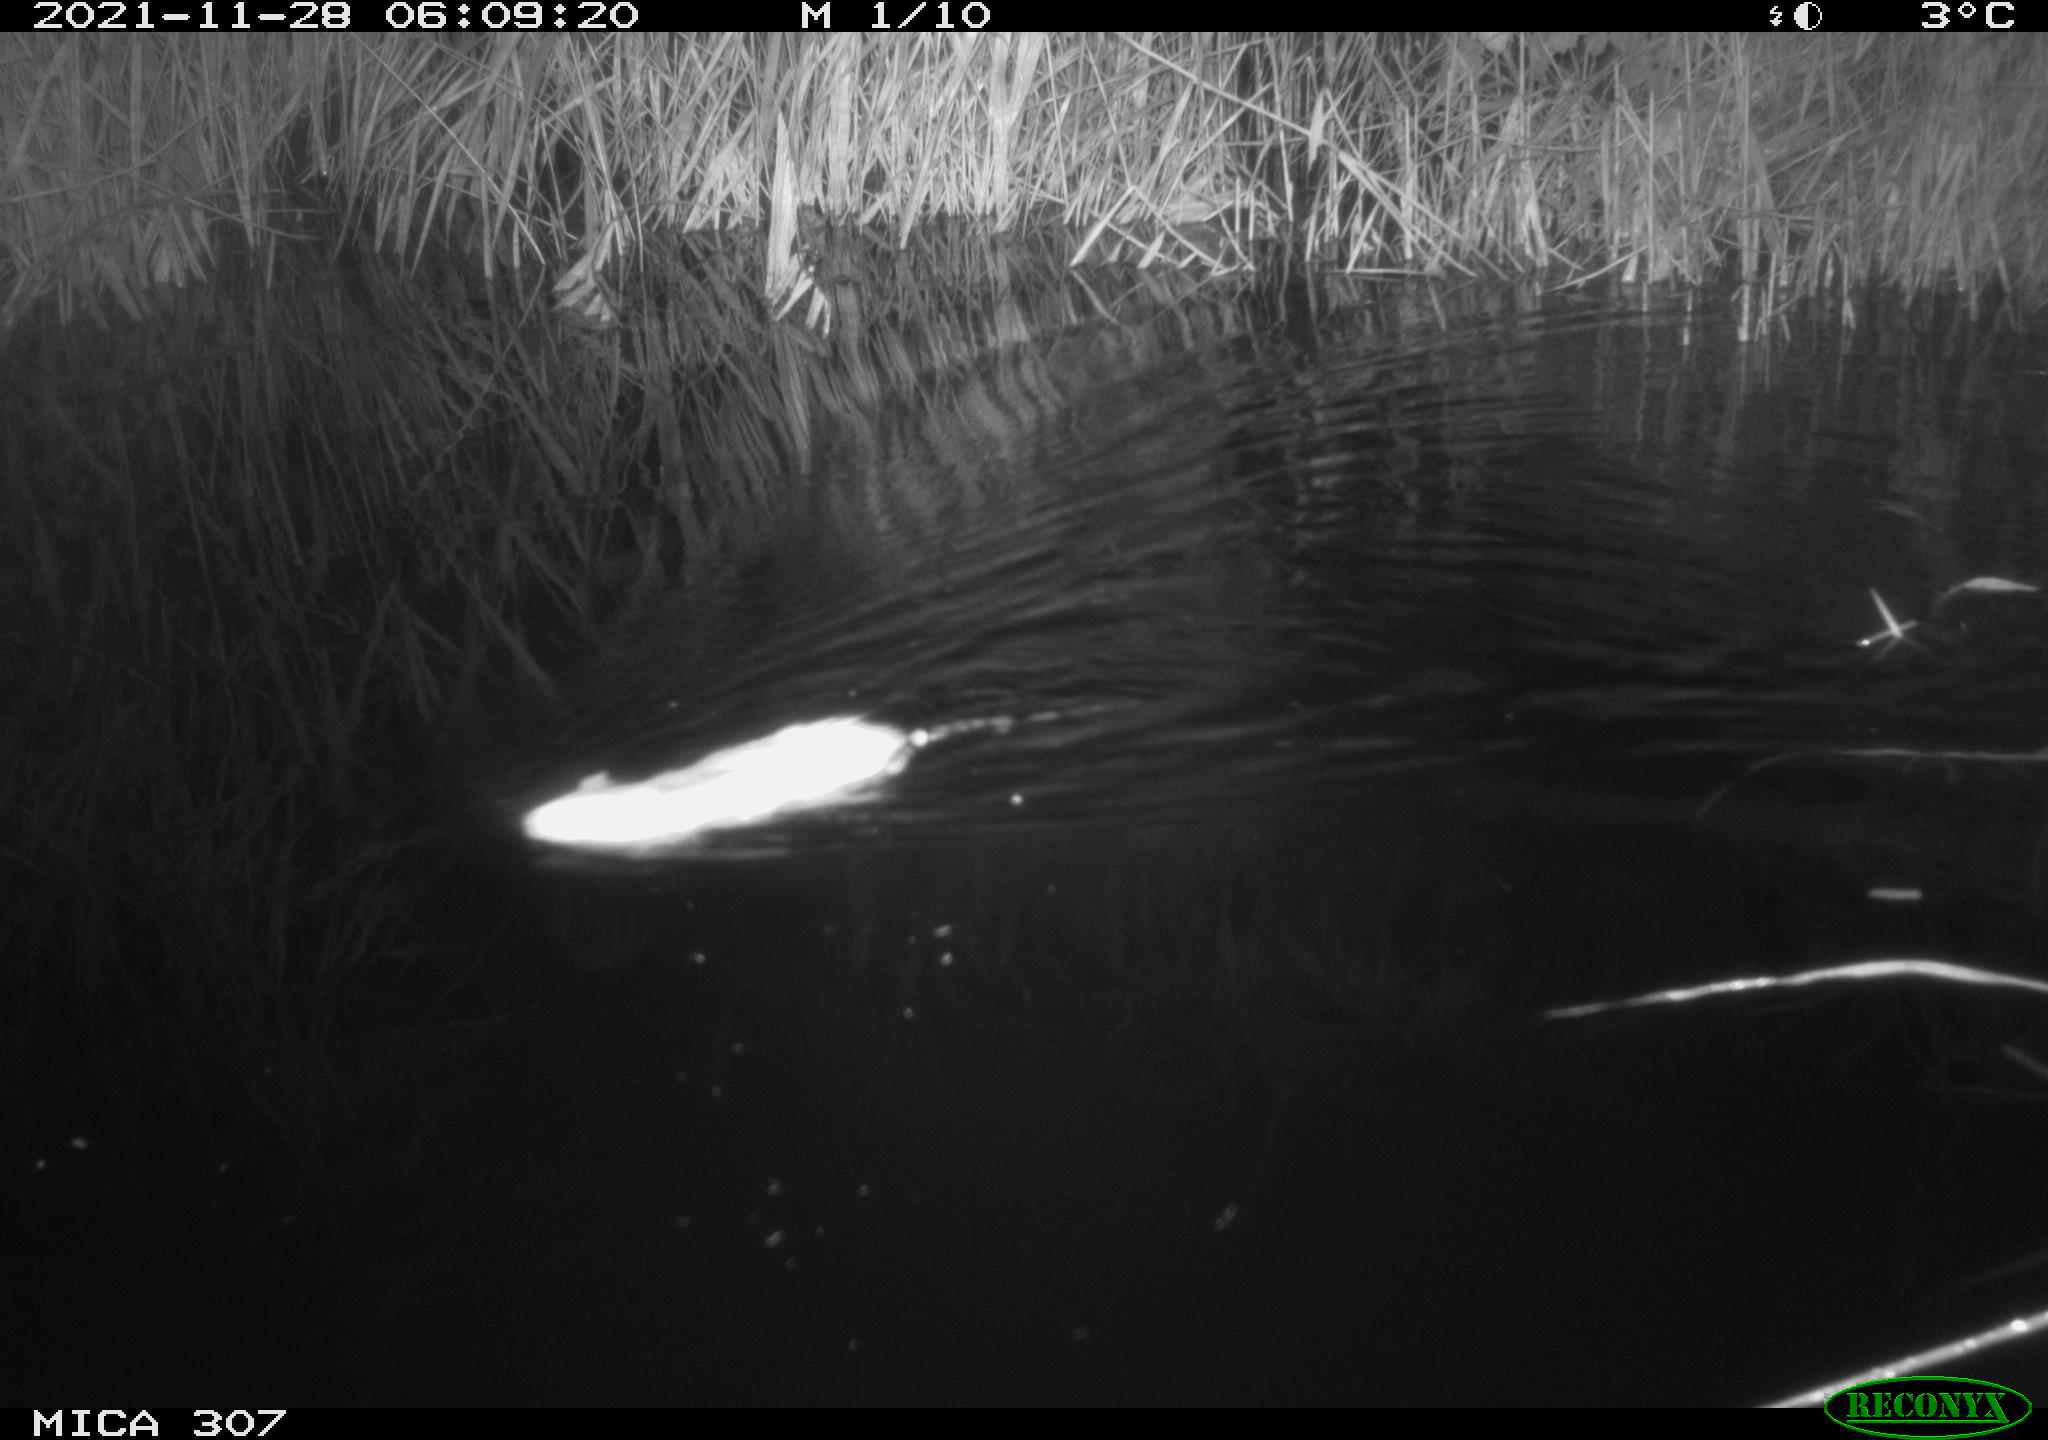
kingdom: Animalia
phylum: Chordata
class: Mammalia
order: Rodentia
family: Muridae
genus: Rattus
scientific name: Rattus norvegicus
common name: Brown rat
